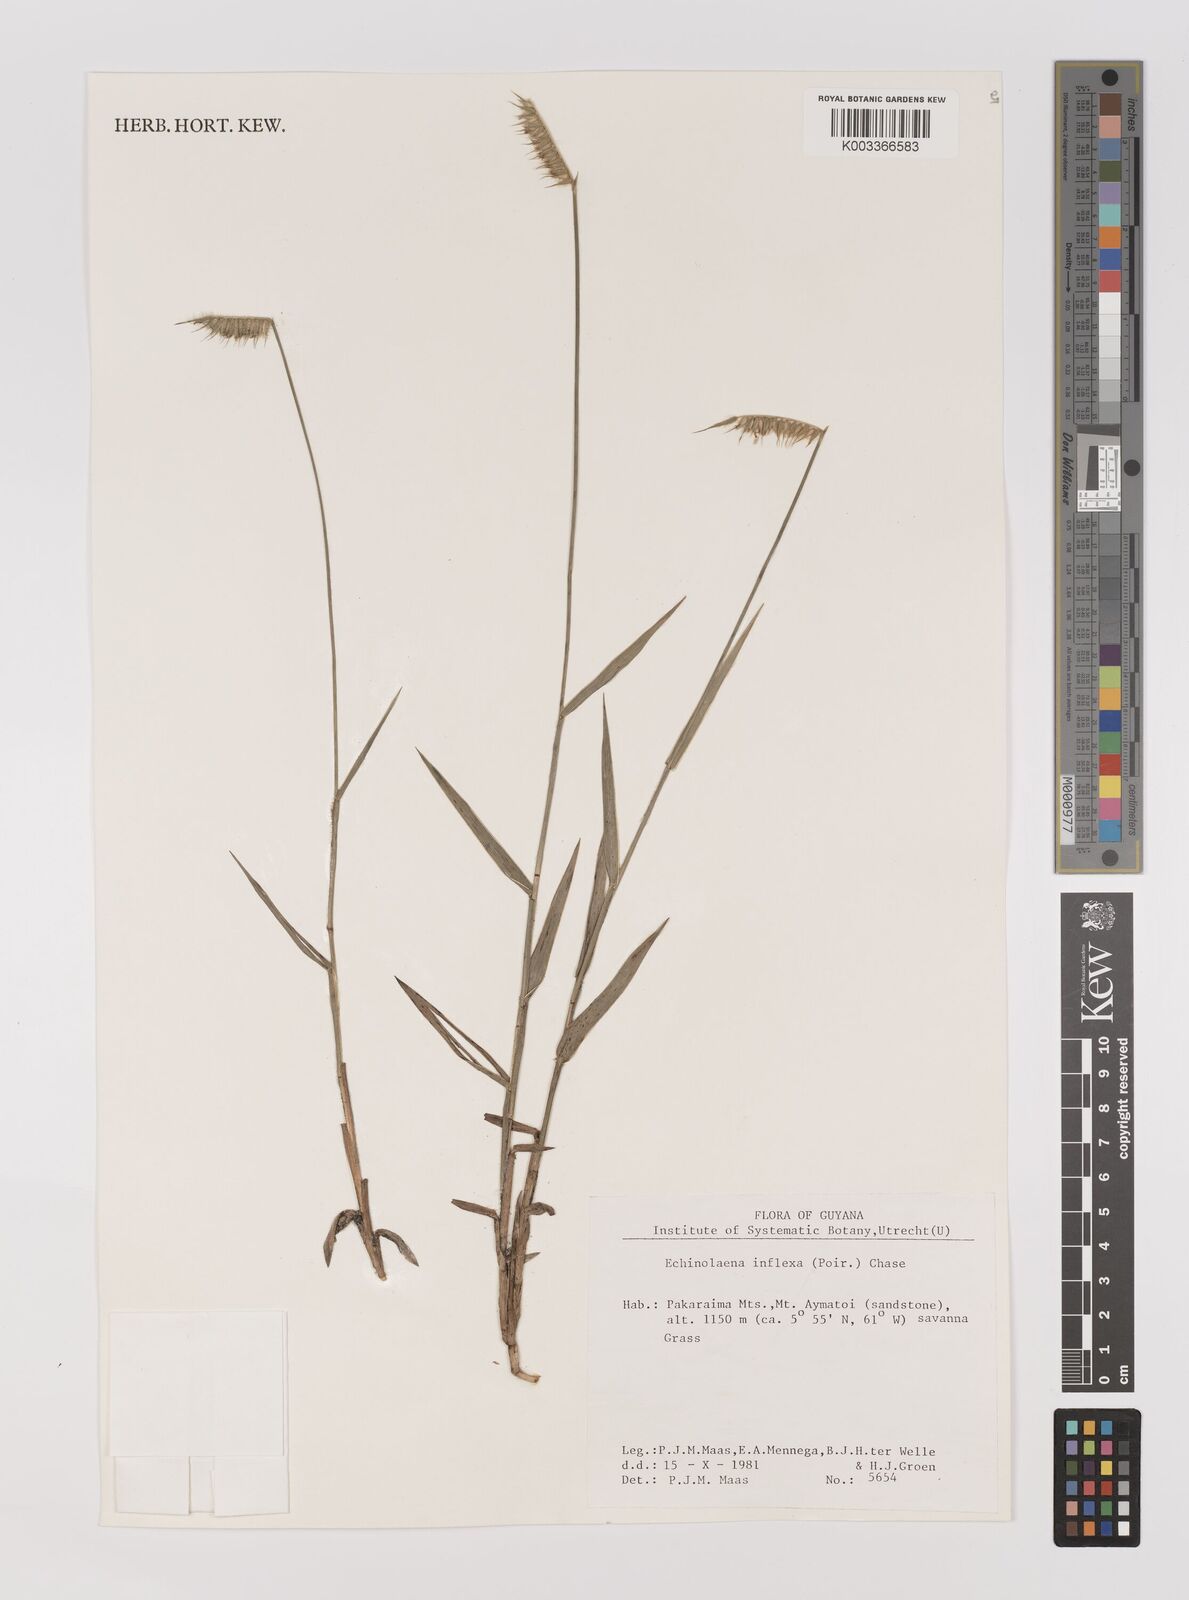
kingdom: Plantae
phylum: Tracheophyta
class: Liliopsida
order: Poales
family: Poaceae
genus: Echinolaena
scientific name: Echinolaena inflexa
